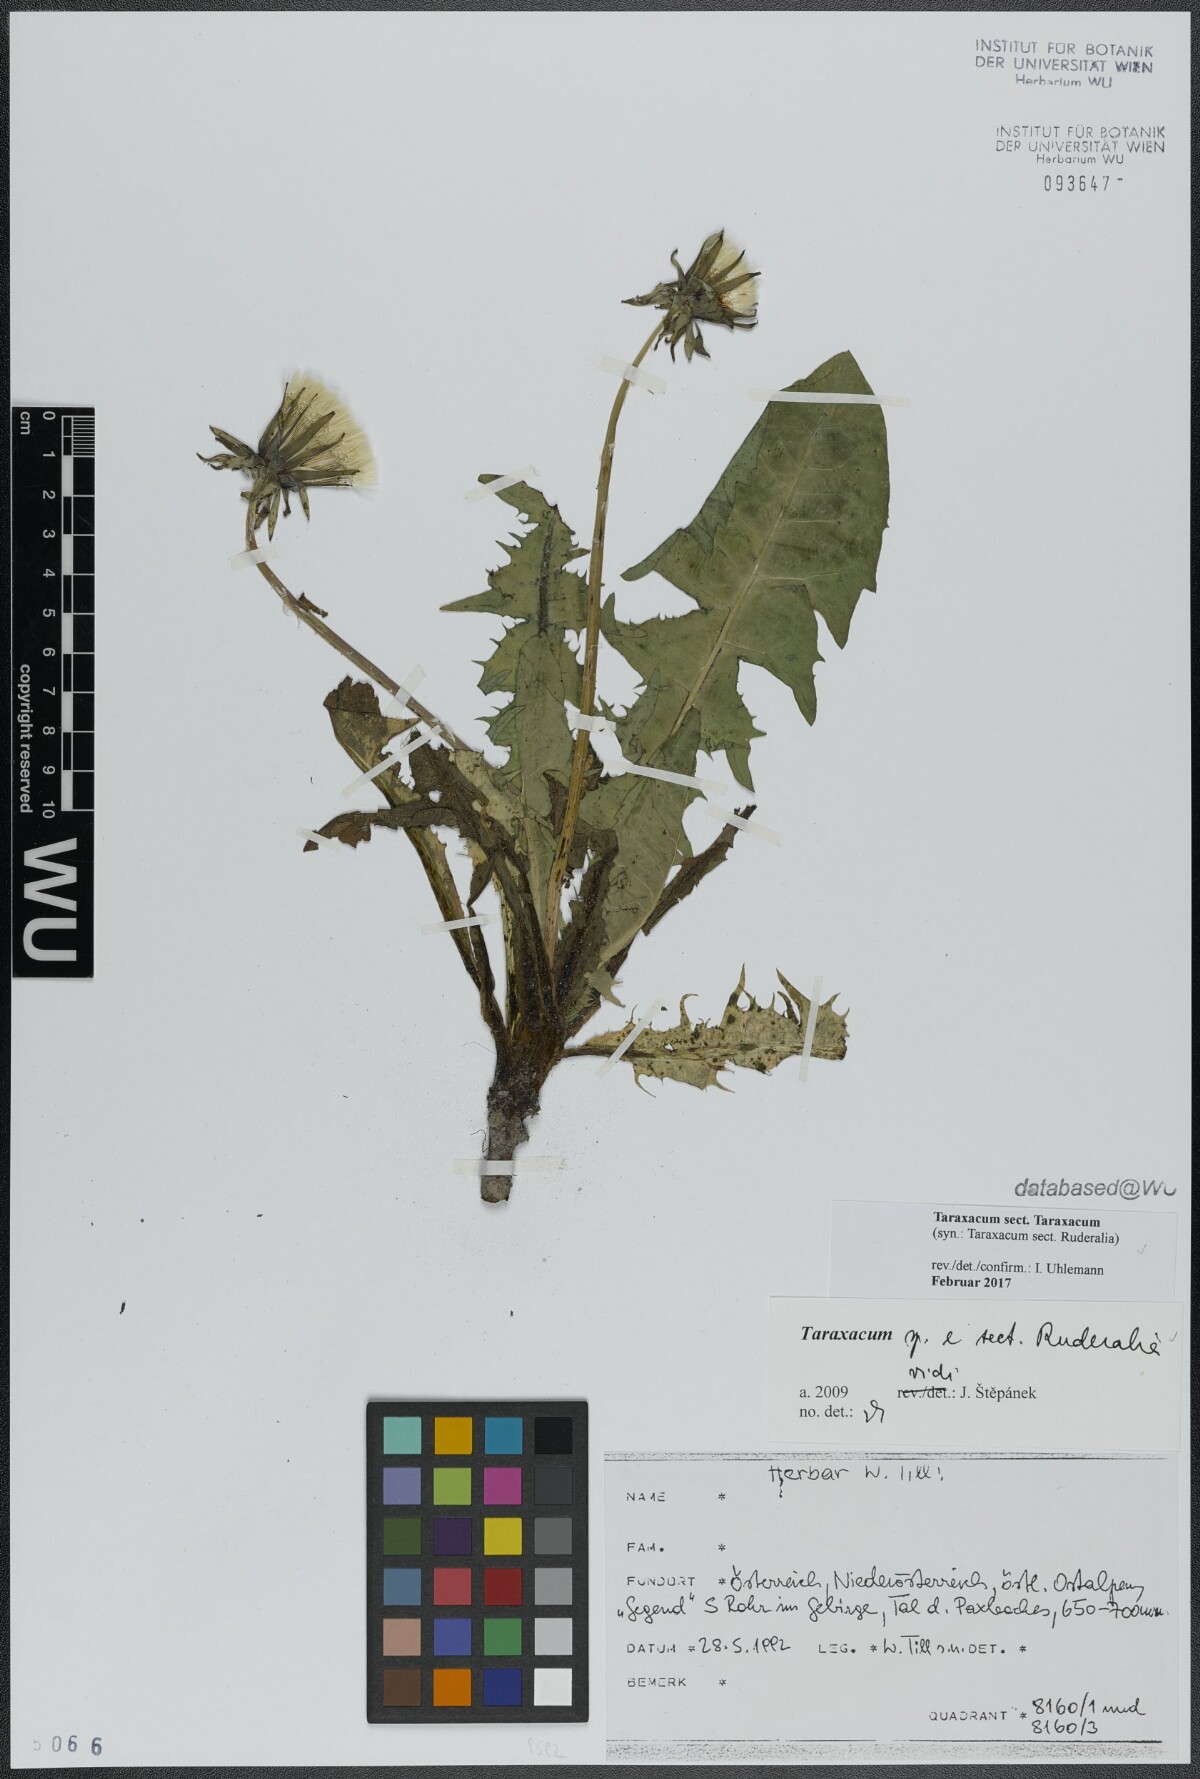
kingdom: Plantae
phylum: Tracheophyta
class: Magnoliopsida
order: Asterales
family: Asteraceae
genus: Taraxacum
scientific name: Taraxacum
